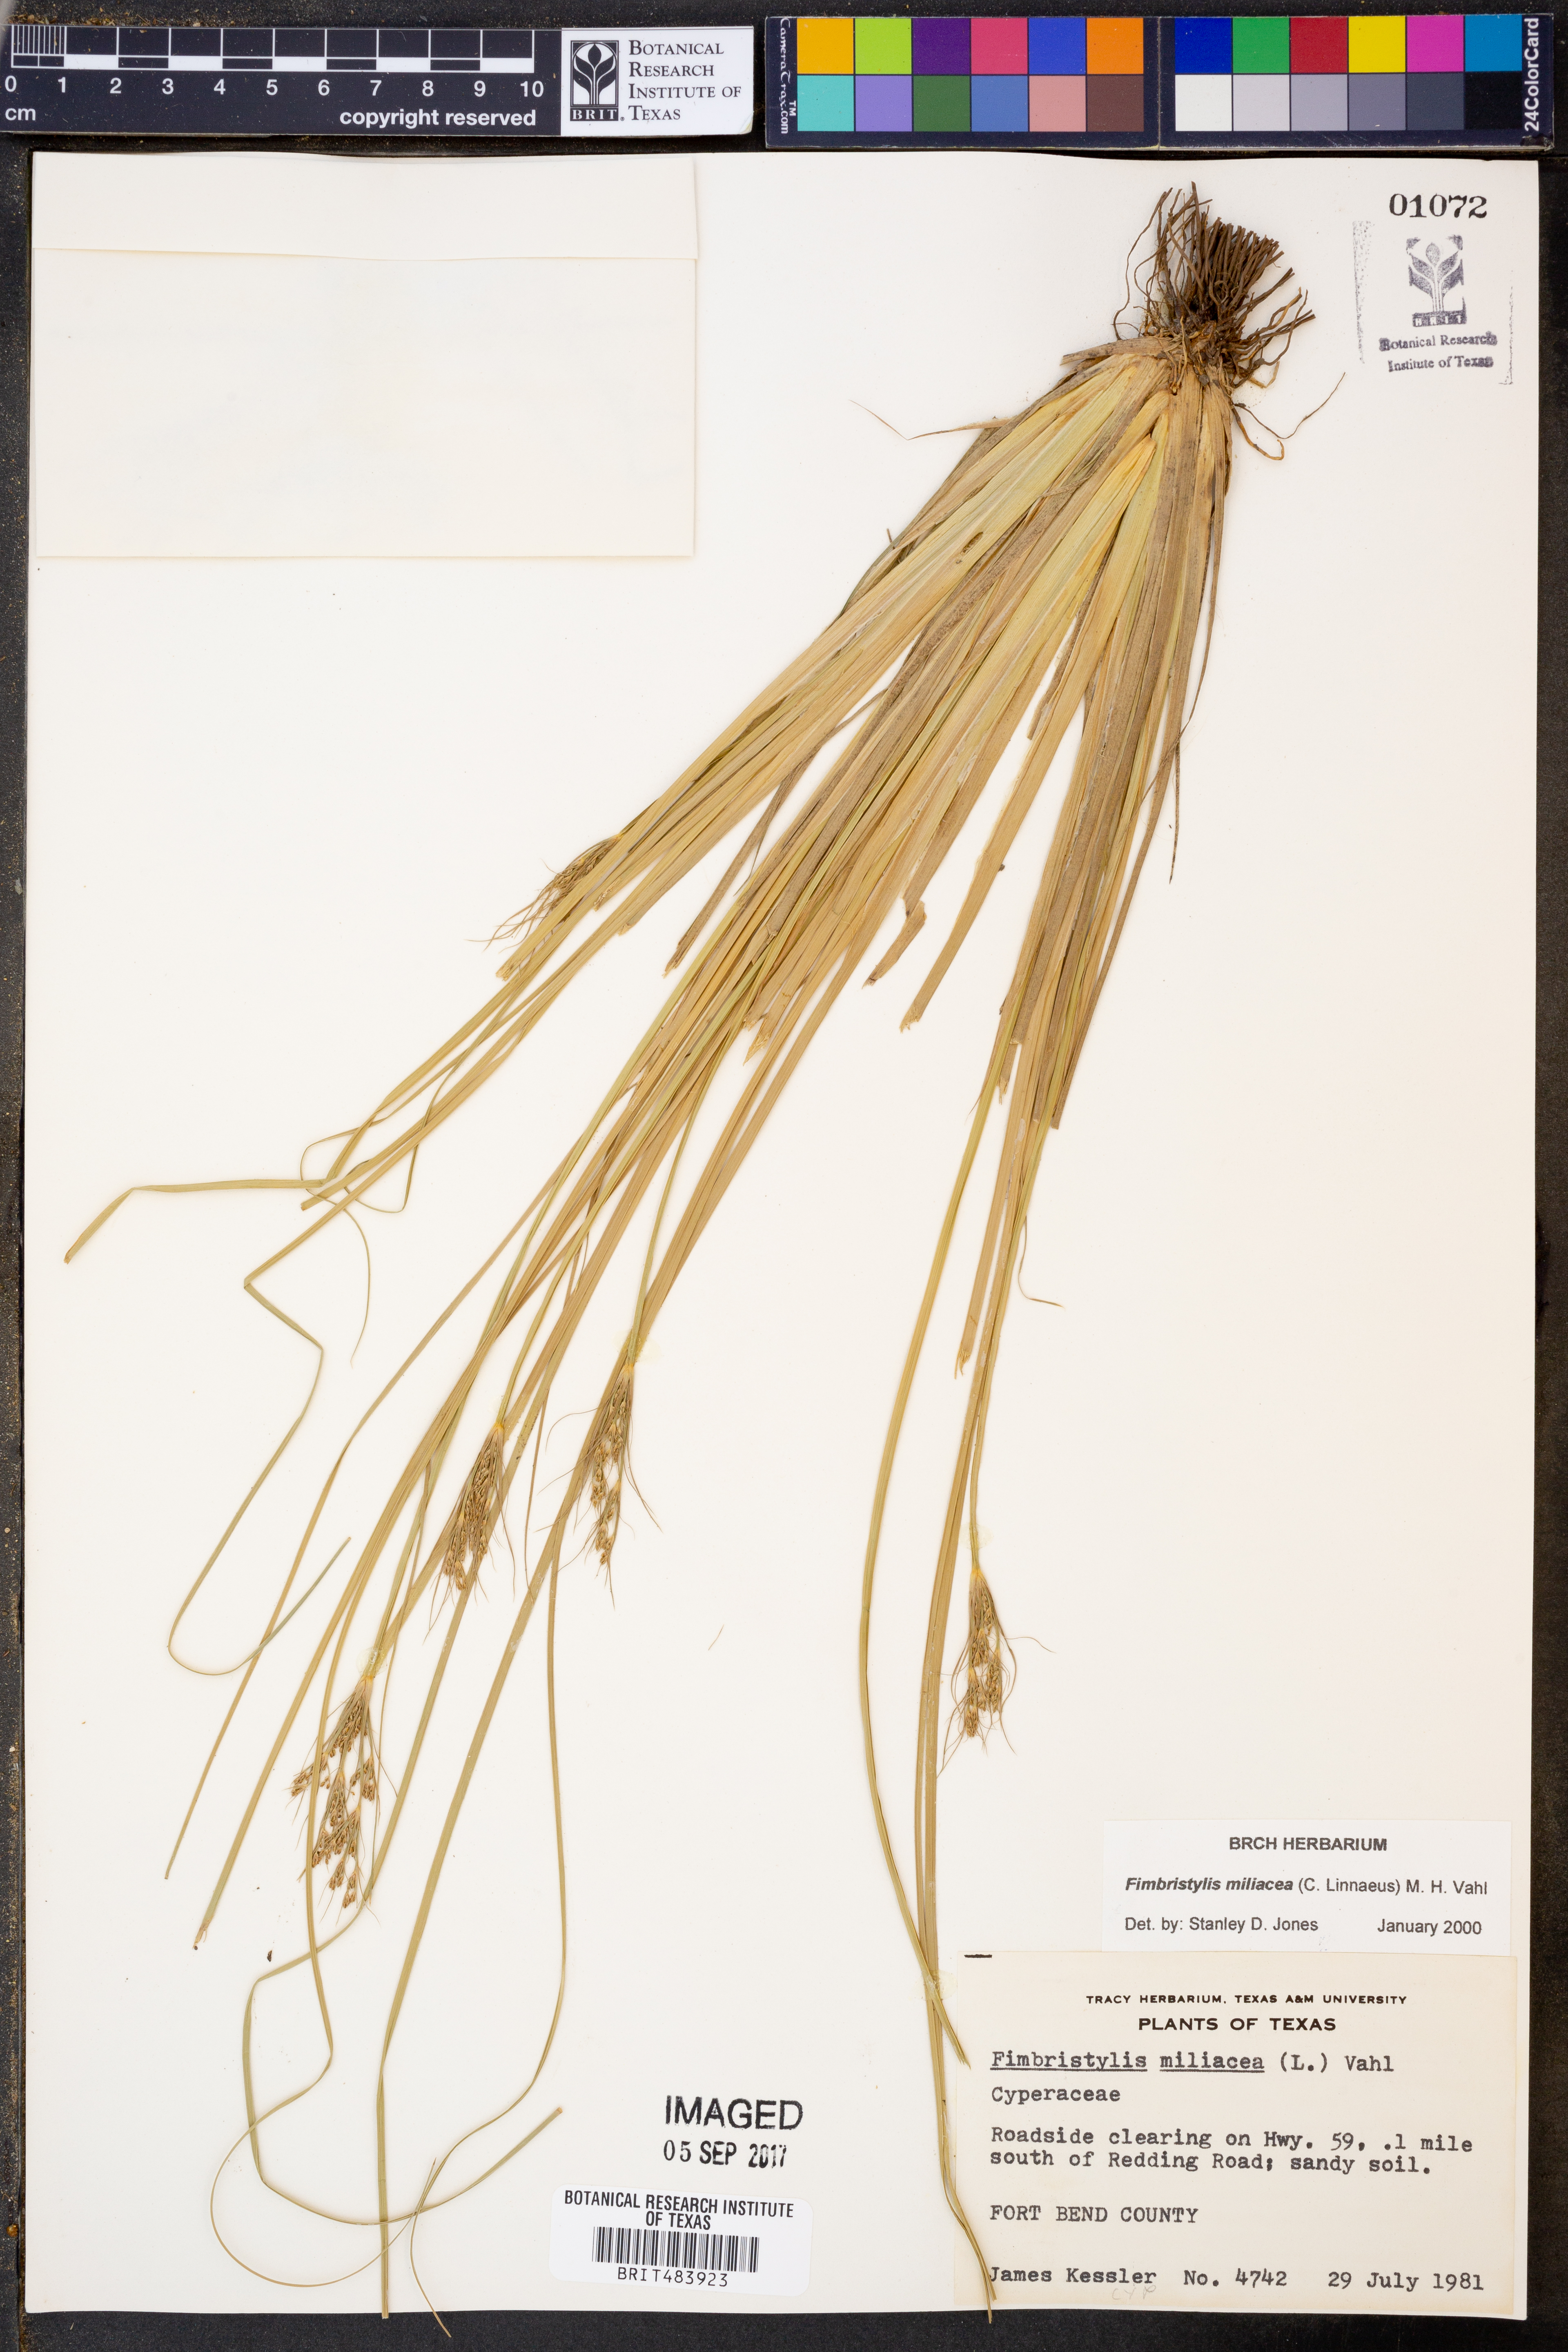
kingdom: Plantae
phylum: Tracheophyta
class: Liliopsida
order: Poales
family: Cyperaceae
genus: Fimbristylis
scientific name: Fimbristylis quinquangularis
